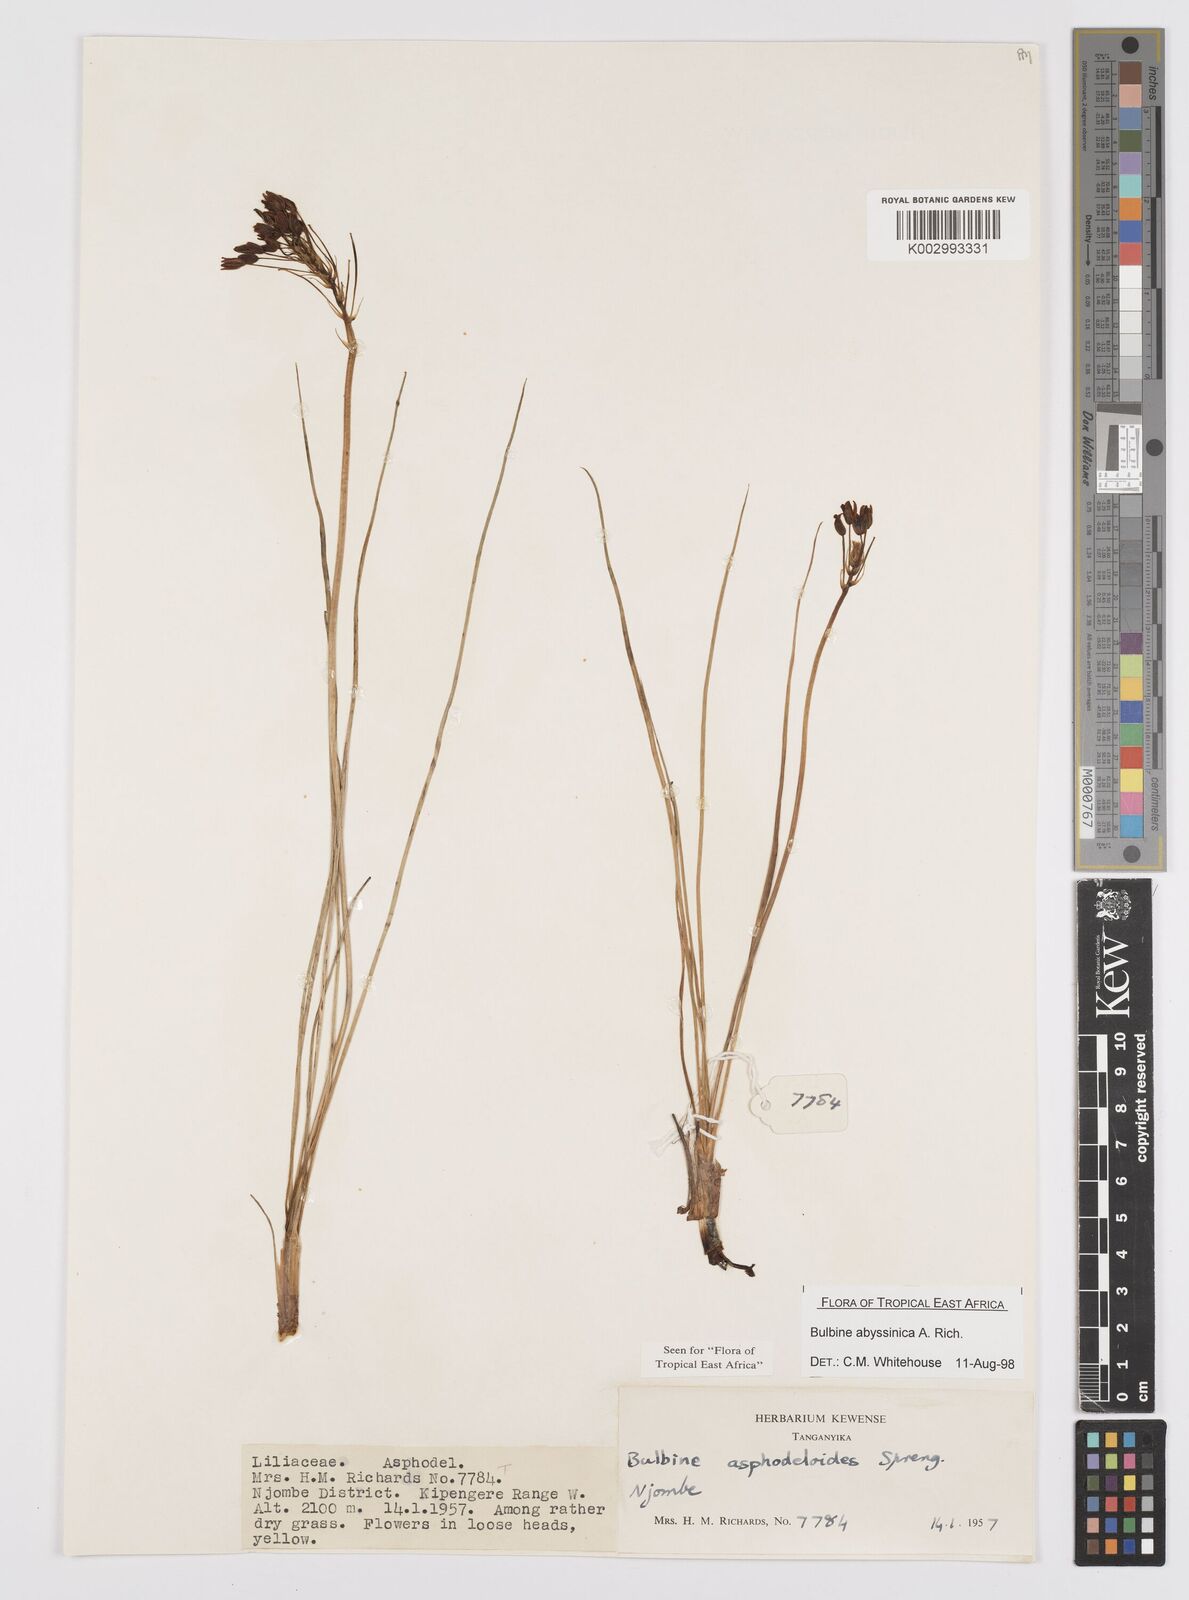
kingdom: Plantae
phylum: Tracheophyta
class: Liliopsida
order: Asparagales
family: Asphodelaceae
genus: Bulbine
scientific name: Bulbine asphodeloides
